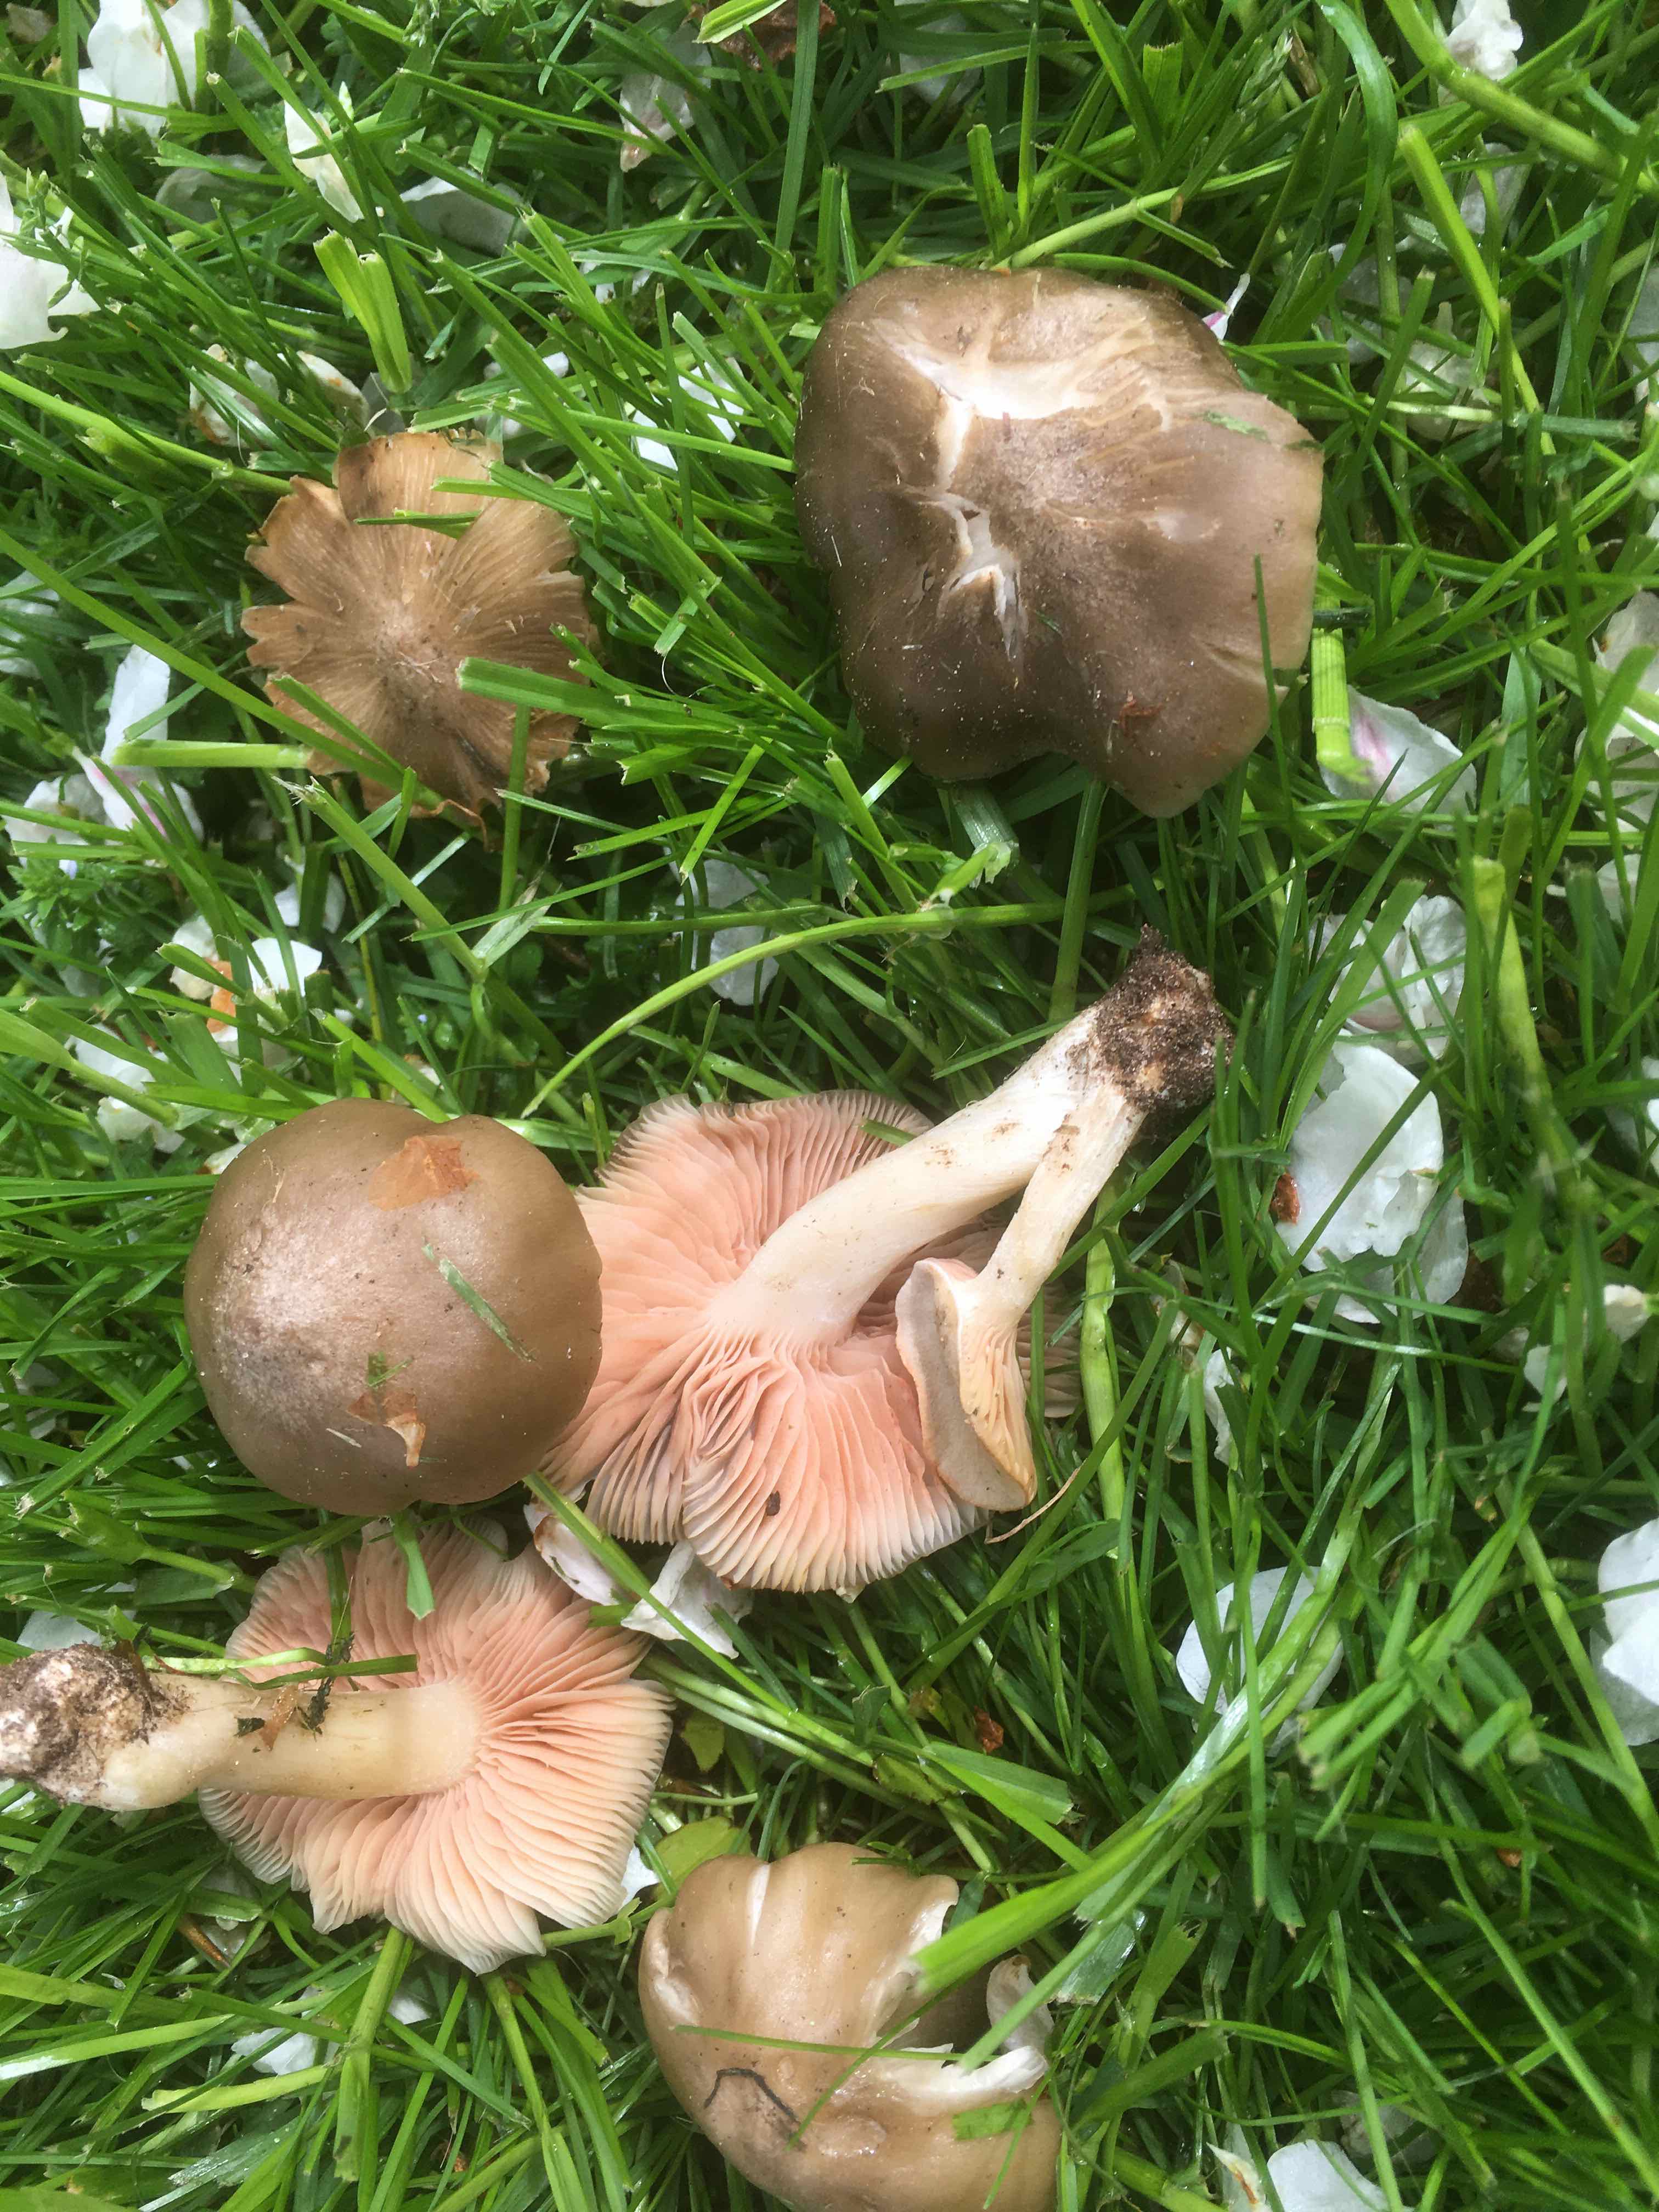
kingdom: Fungi
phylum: Basidiomycota
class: Agaricomycetes
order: Agaricales
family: Entolomataceae
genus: Entoloma
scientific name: Entoloma clypeatum
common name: flammet rødblad
